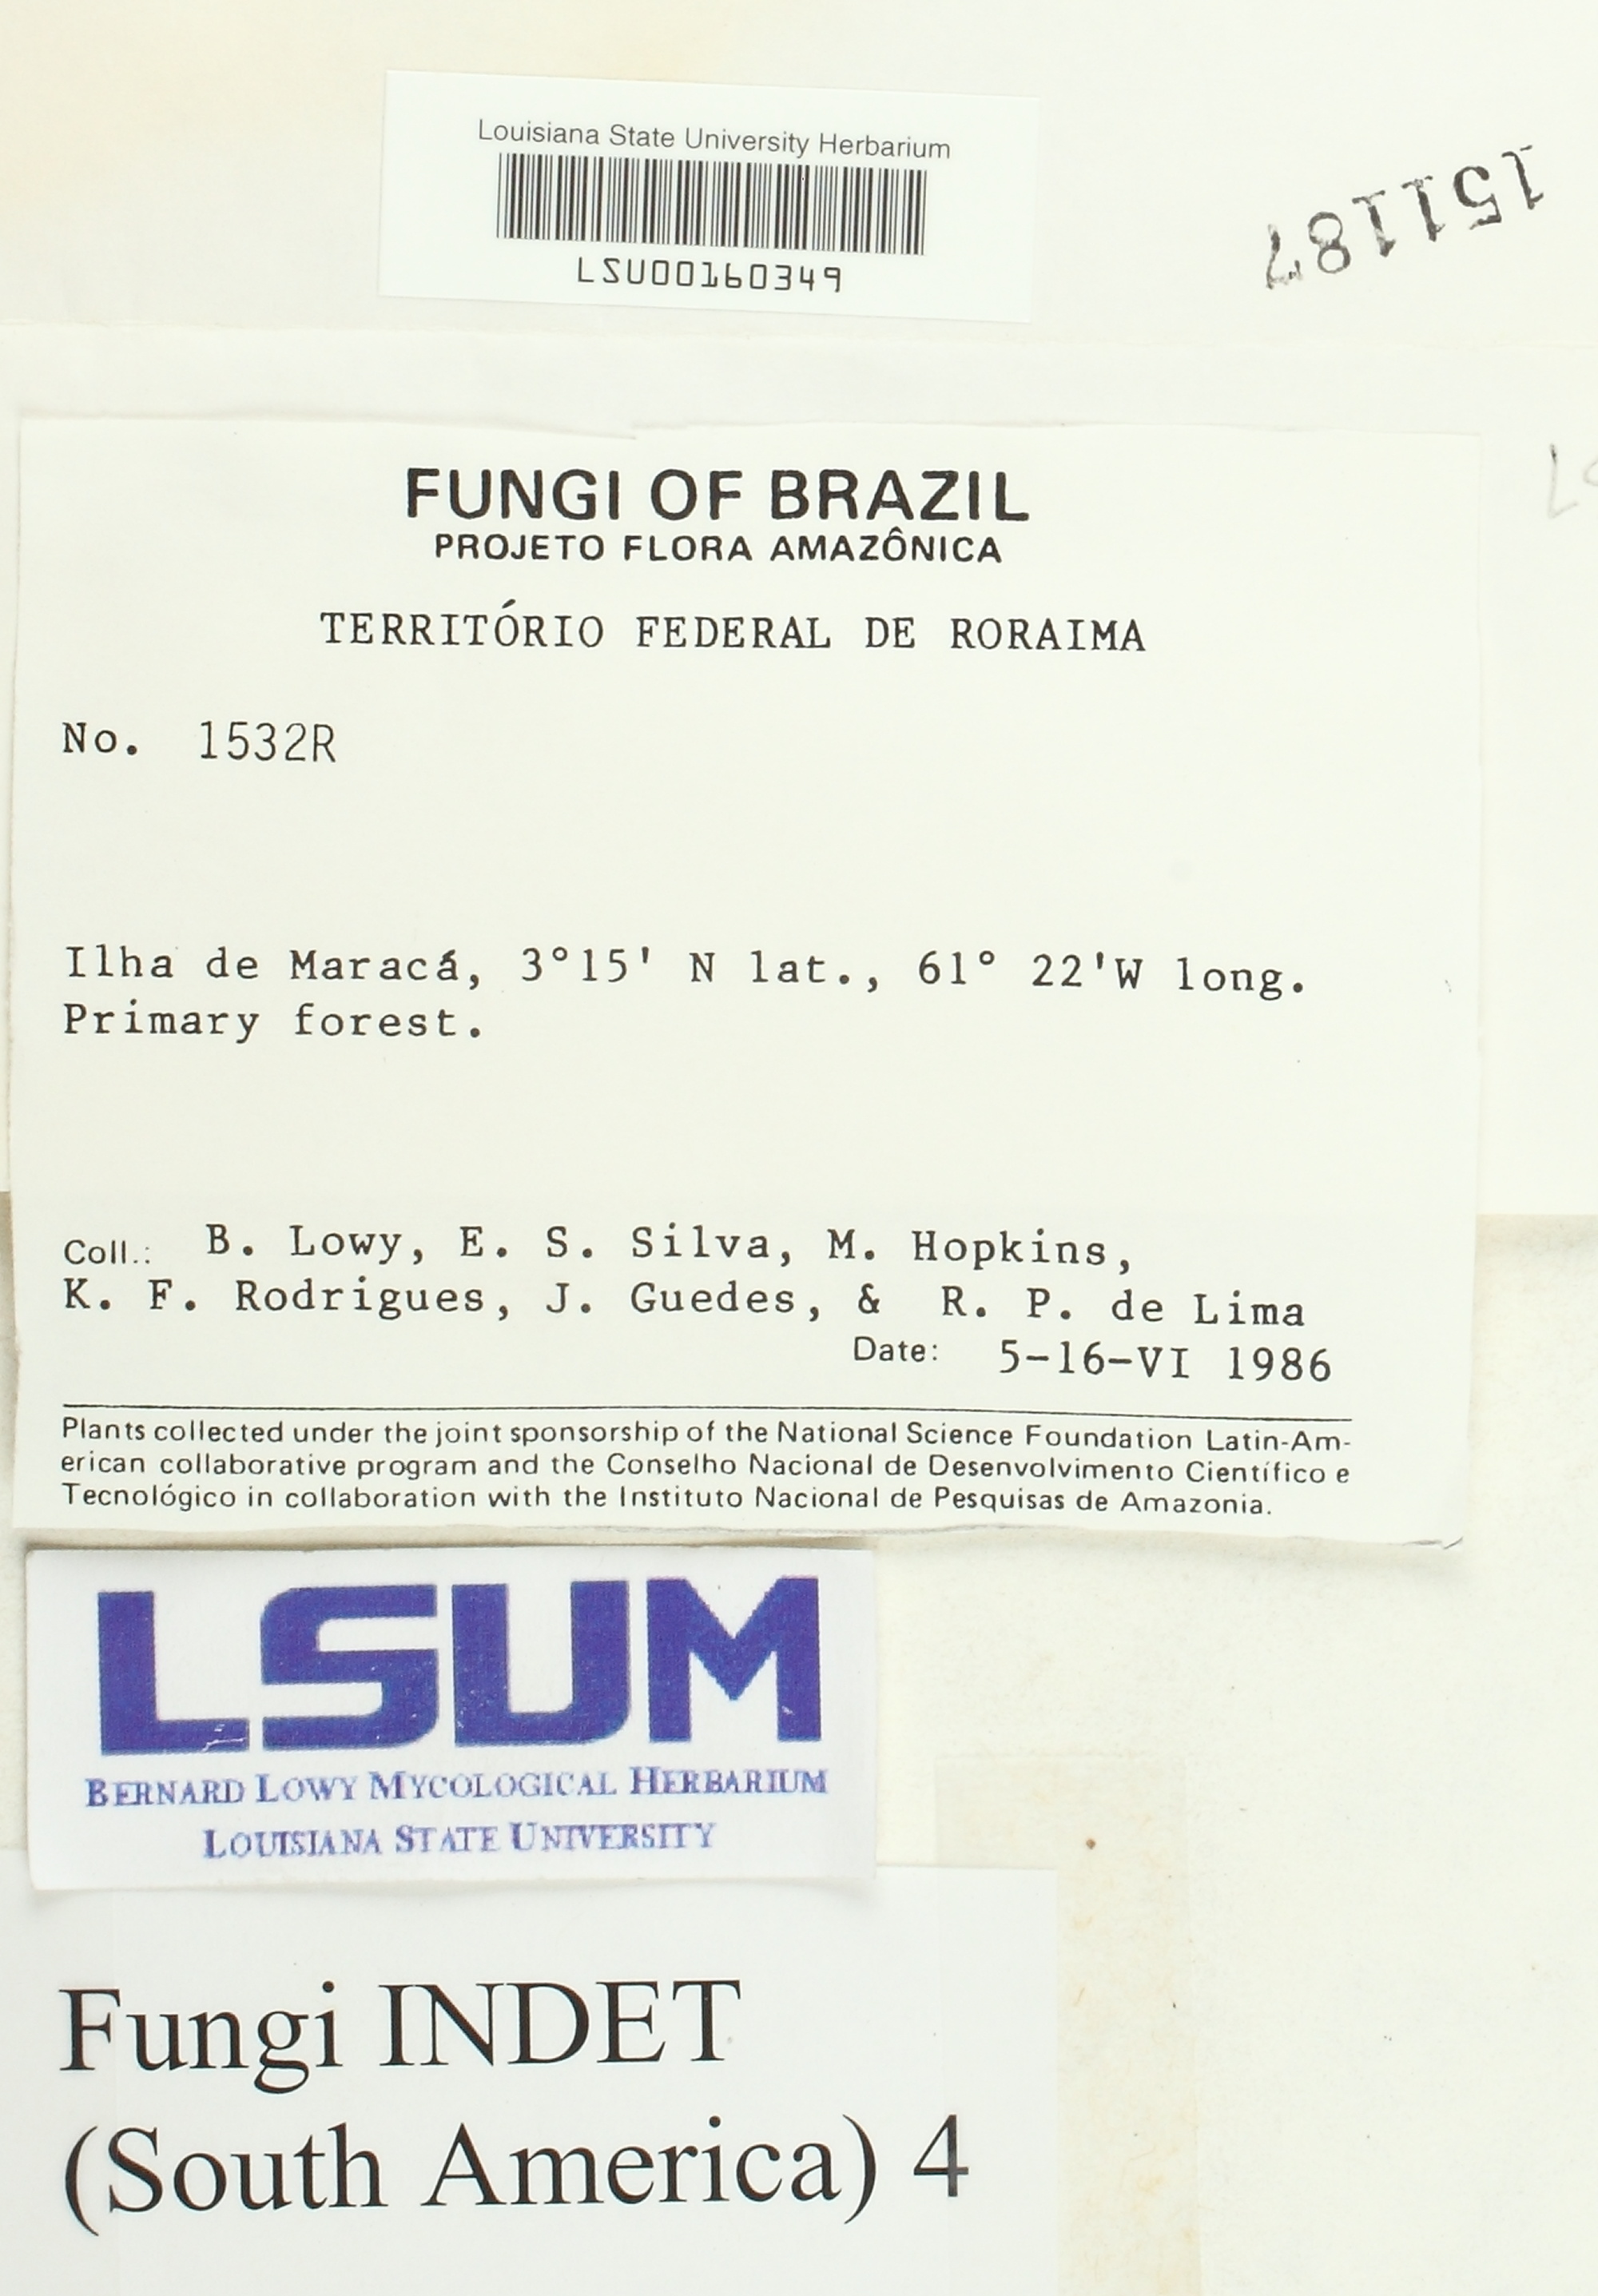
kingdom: Fungi
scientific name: Fungi
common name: Fungi
